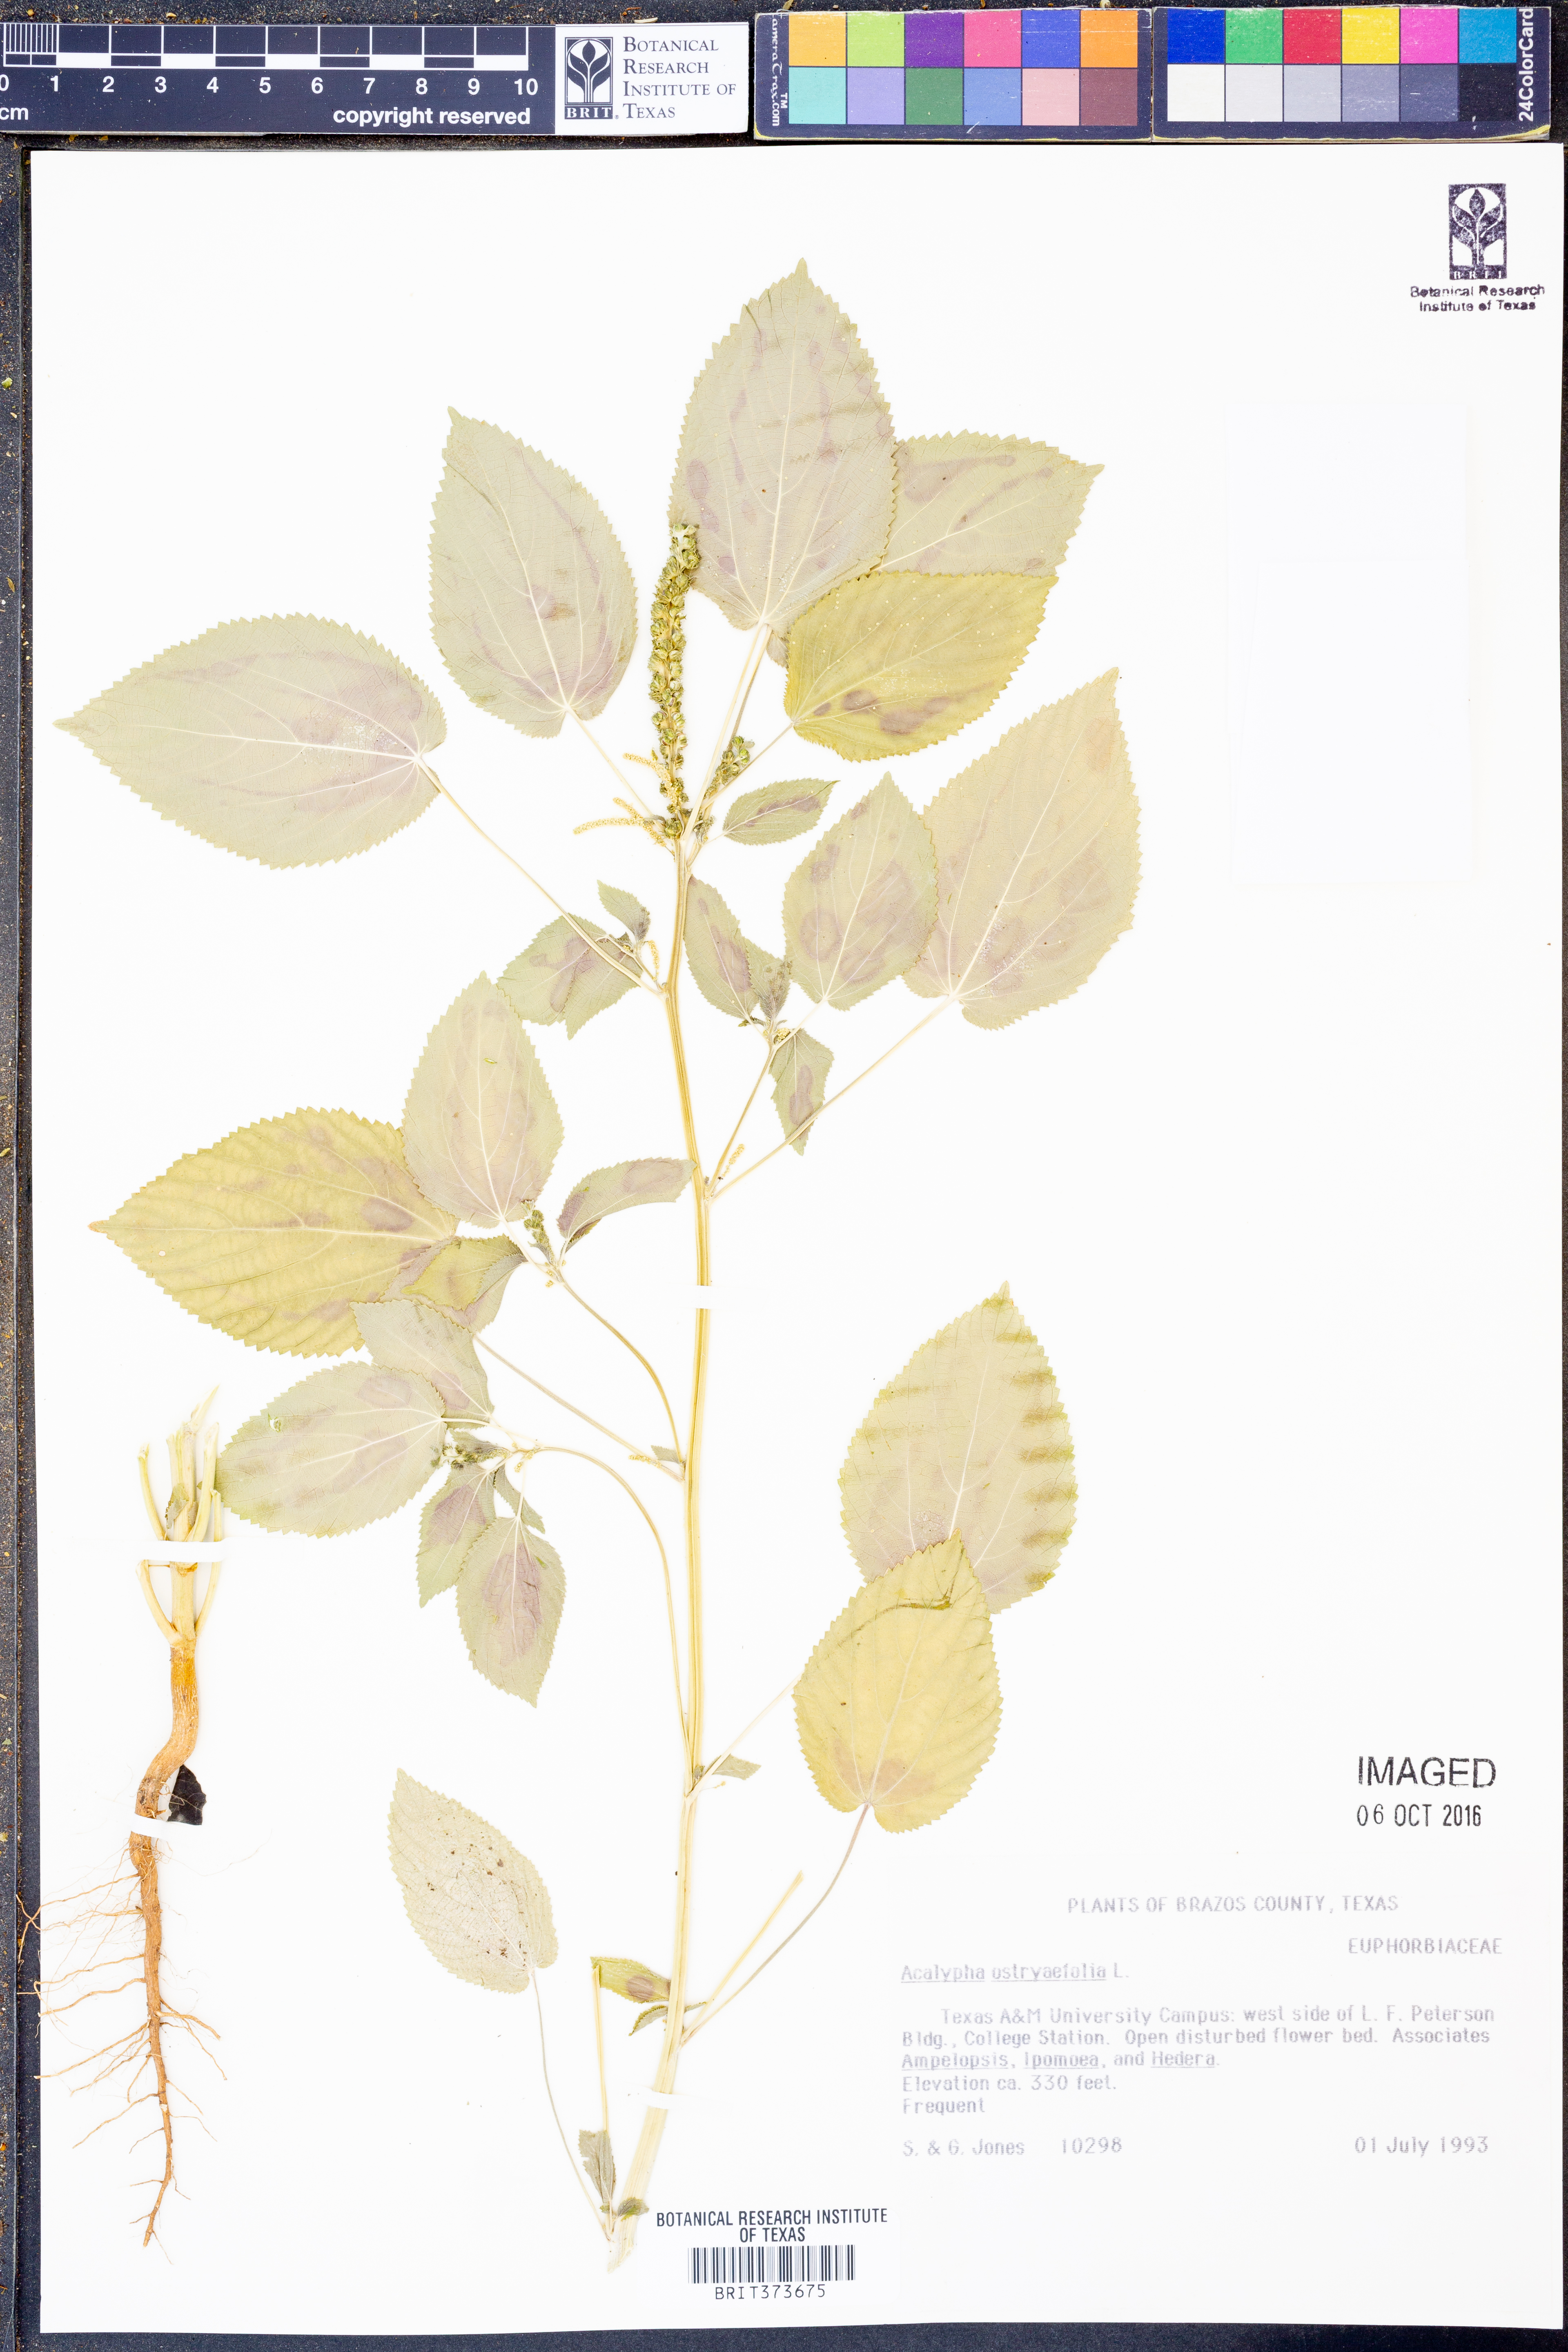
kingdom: Plantae
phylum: Tracheophyta
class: Magnoliopsida
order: Malpighiales
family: Euphorbiaceae
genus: Acalypha
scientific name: Acalypha ostryifolia
